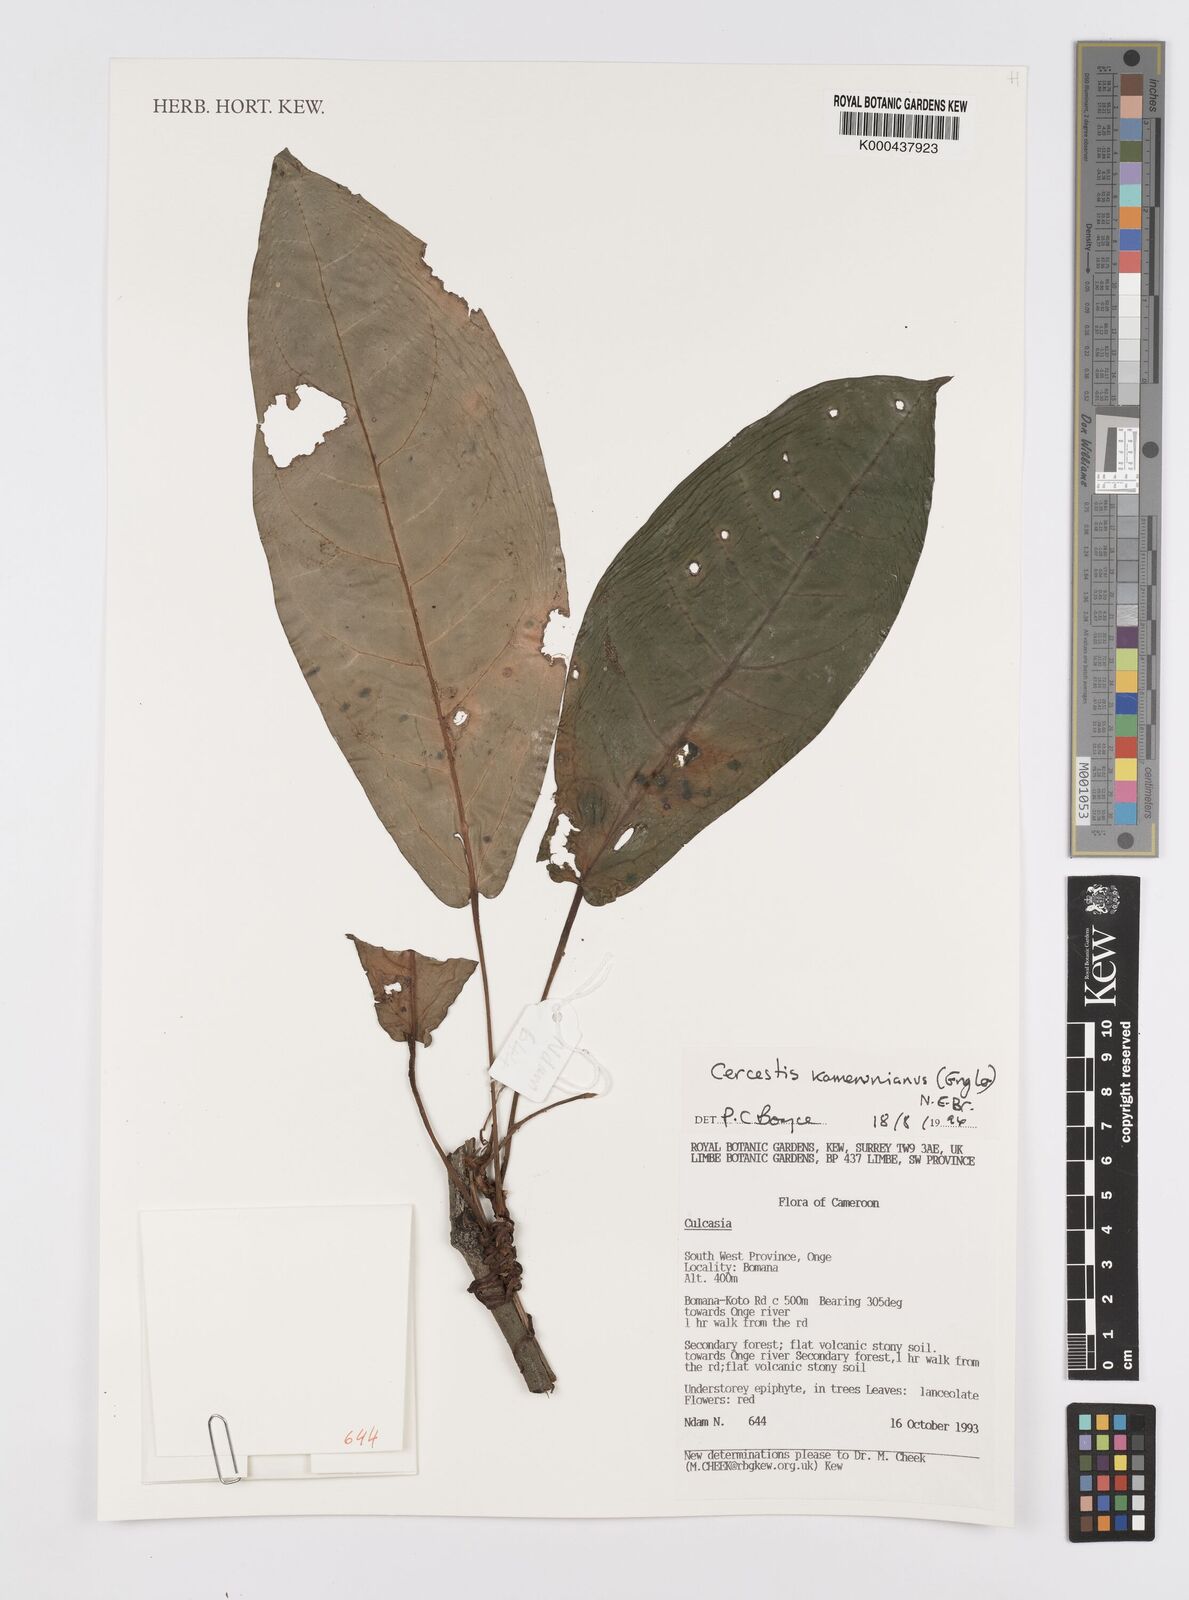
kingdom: Plantae
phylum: Tracheophyta
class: Liliopsida
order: Alismatales
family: Araceae
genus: Cercestis
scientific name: Cercestis kamerunianus
